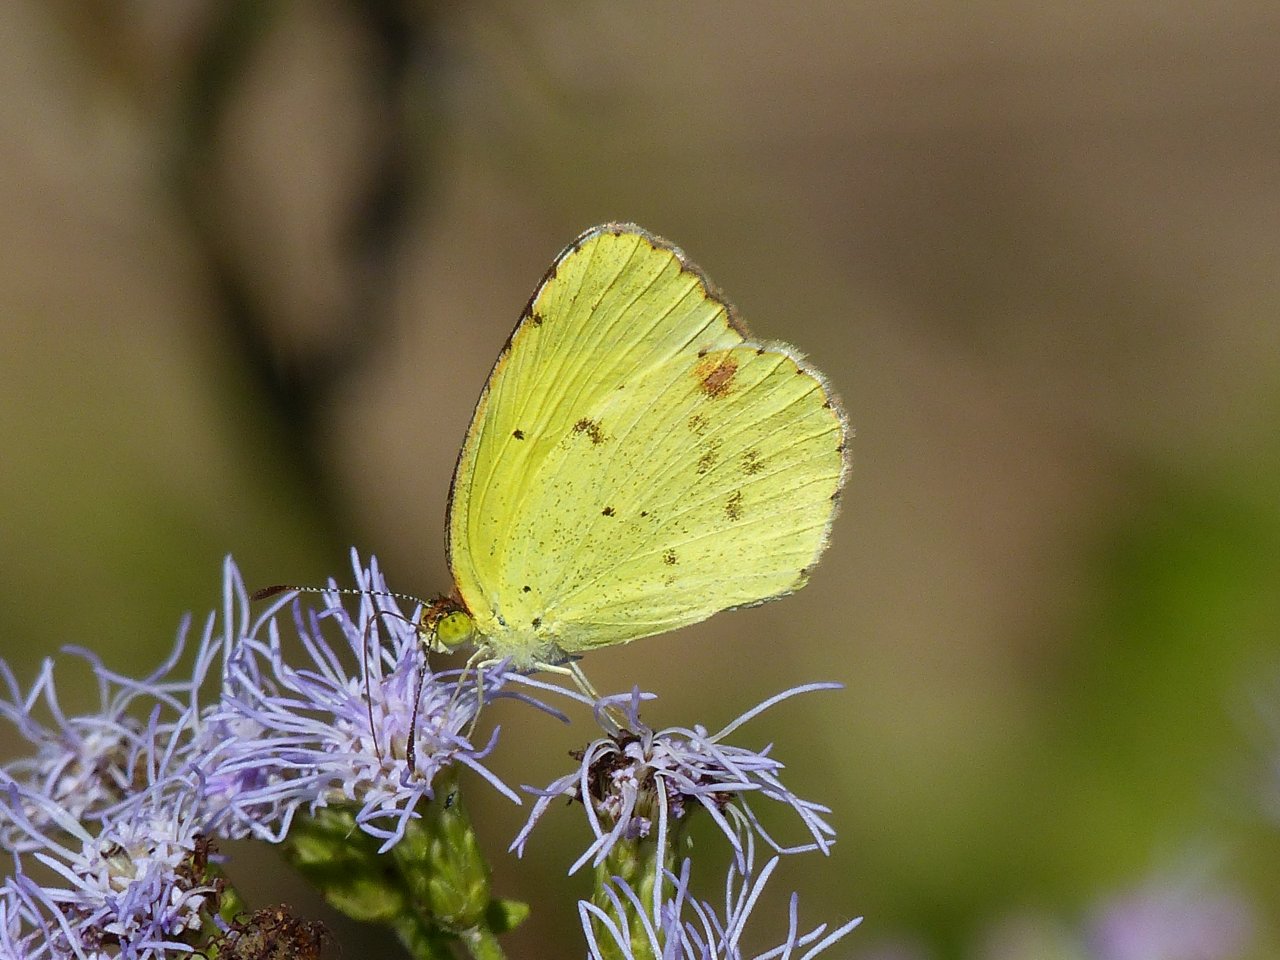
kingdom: Animalia
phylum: Arthropoda
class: Insecta
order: Lepidoptera
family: Pieridae
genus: Pyrisitia
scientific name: Pyrisitia lisa
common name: Little Yellow
